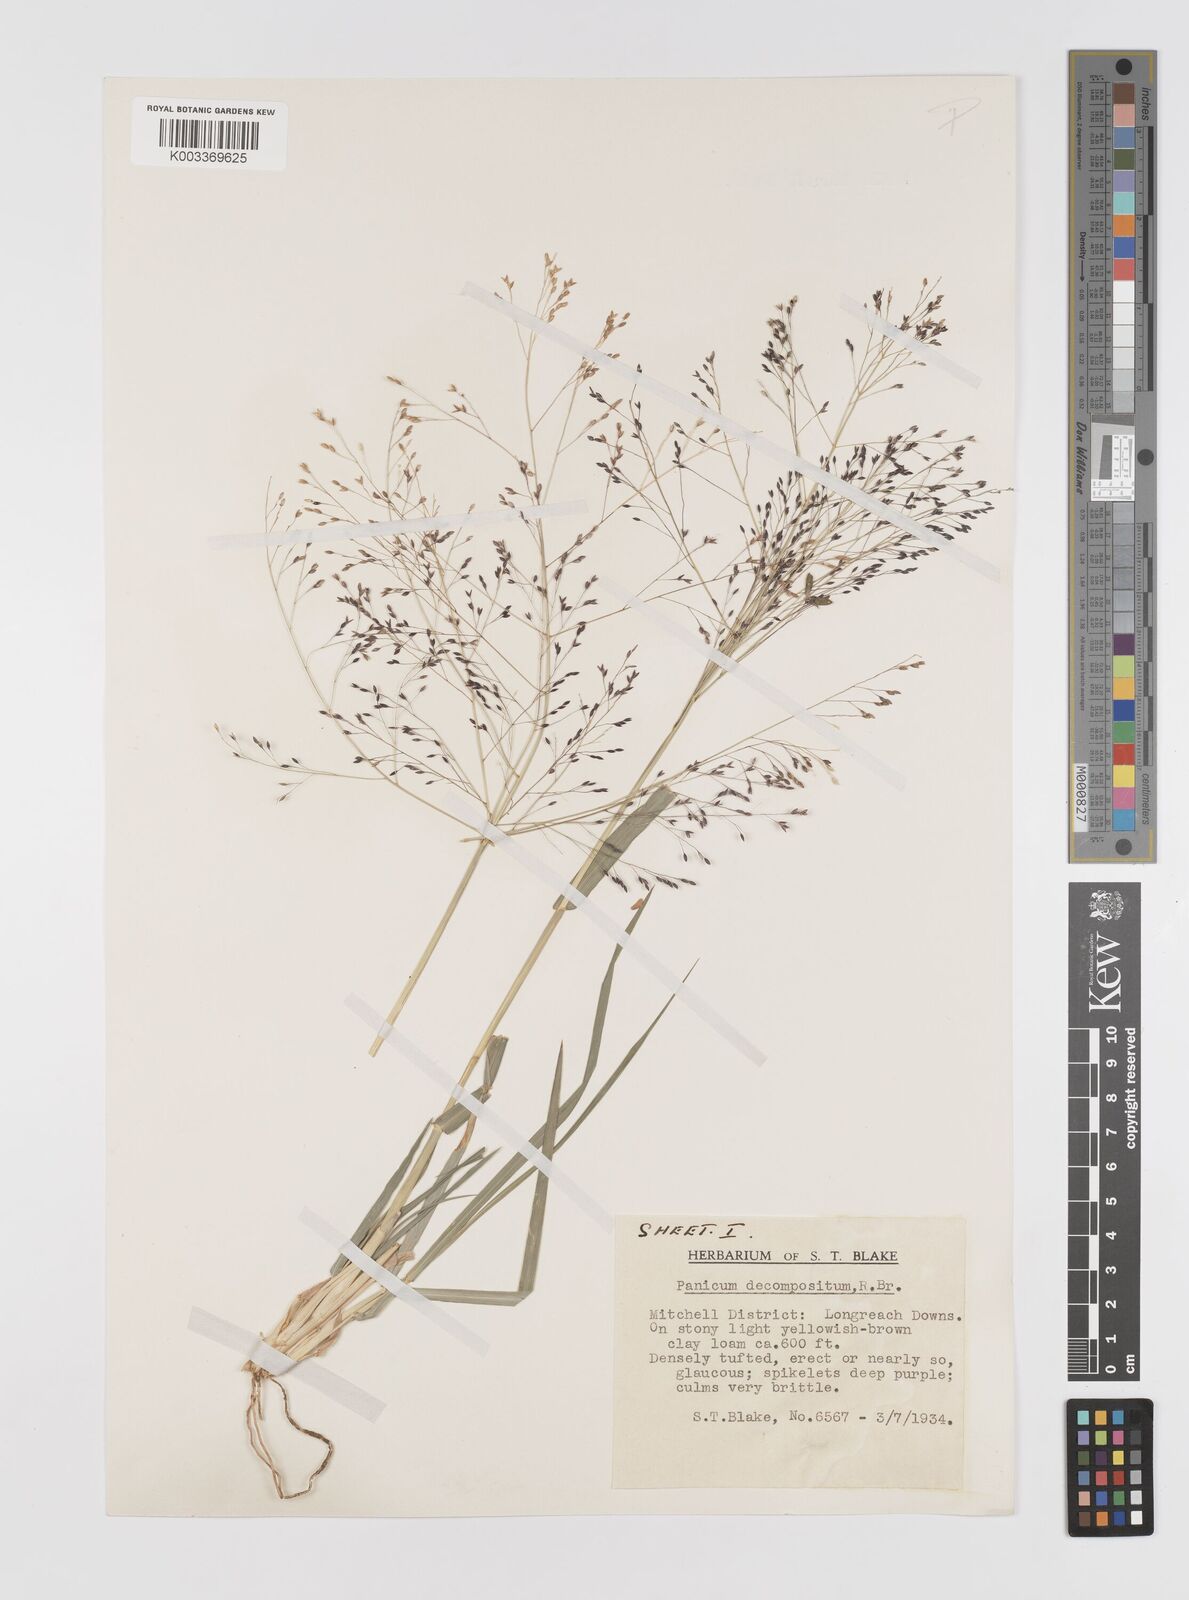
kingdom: Plantae
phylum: Tracheophyta
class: Liliopsida
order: Poales
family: Poaceae
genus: Panicum
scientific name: Panicum decompositum
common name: Australian millet
